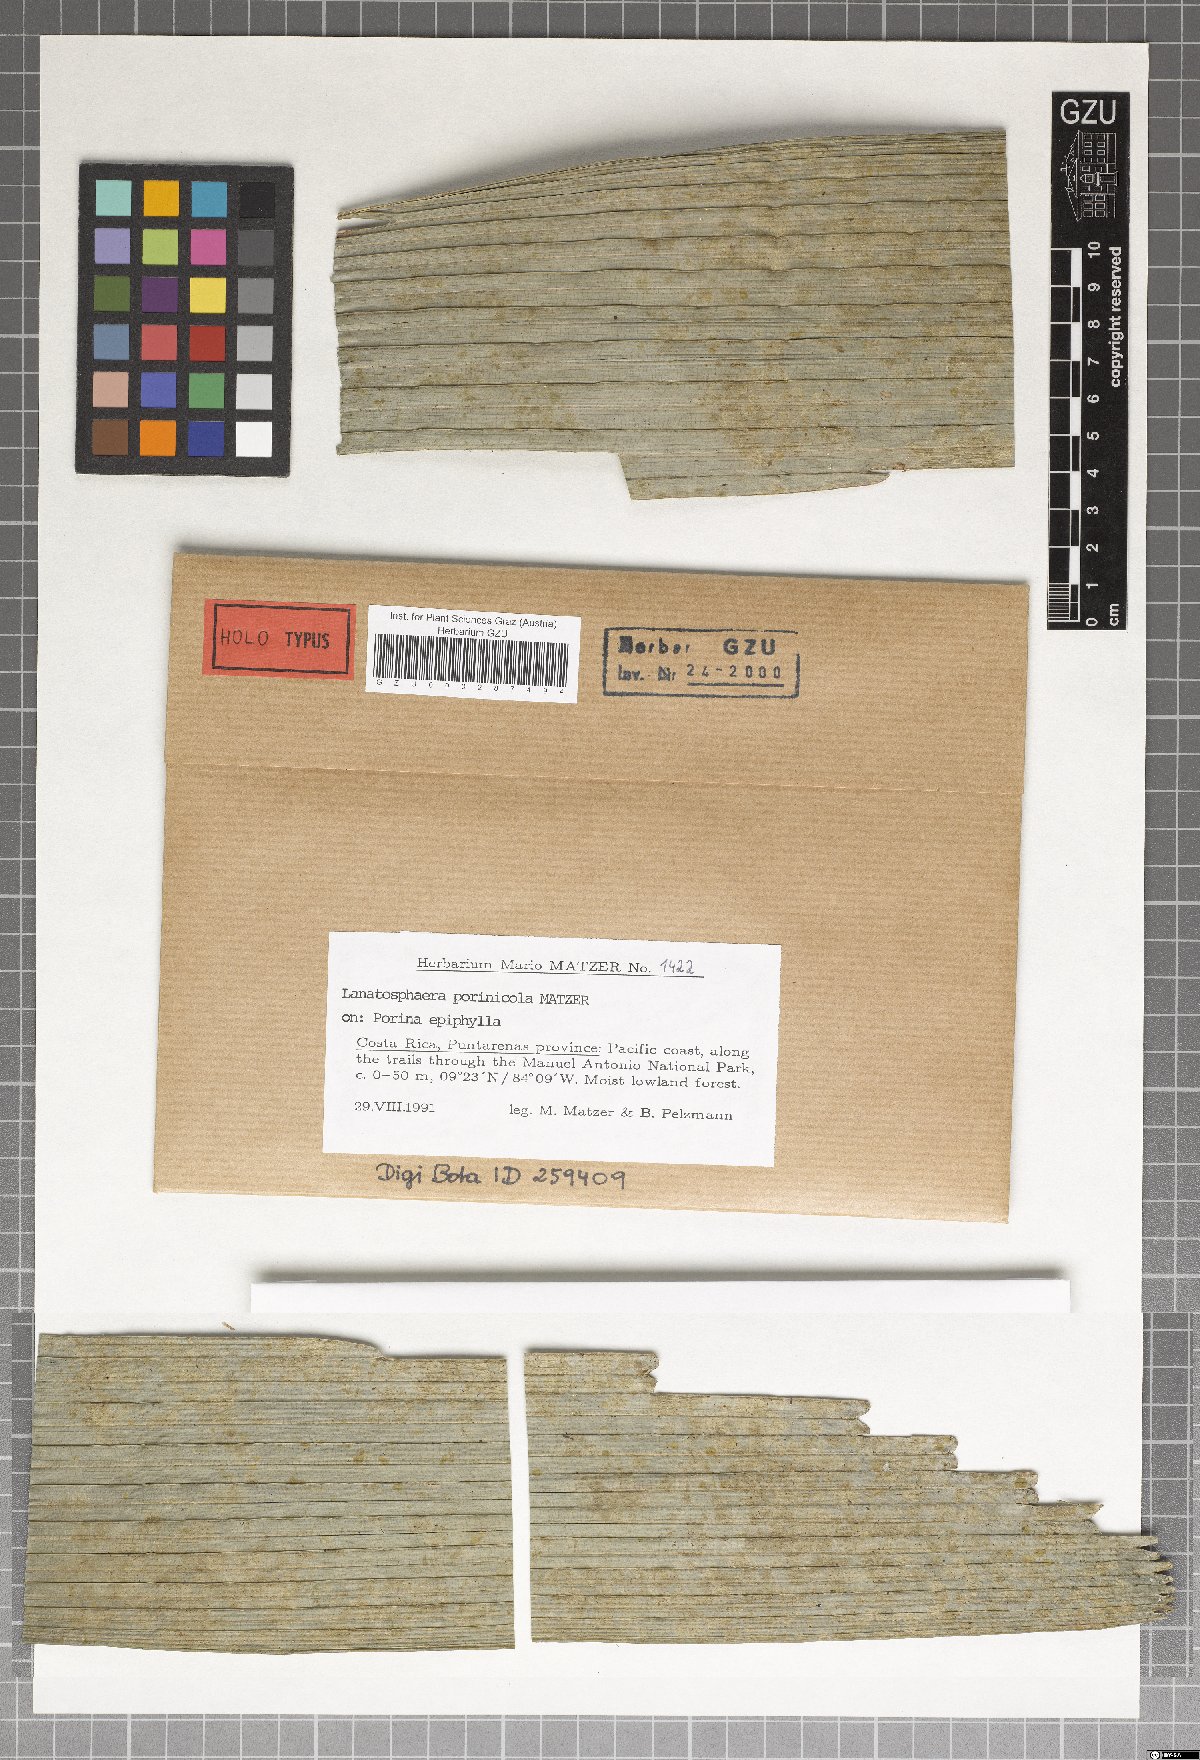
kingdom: Fungi
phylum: Ascomycota
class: Dothideomycetes
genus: Lanatosphaera
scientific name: Lanatosphaera porinicola
